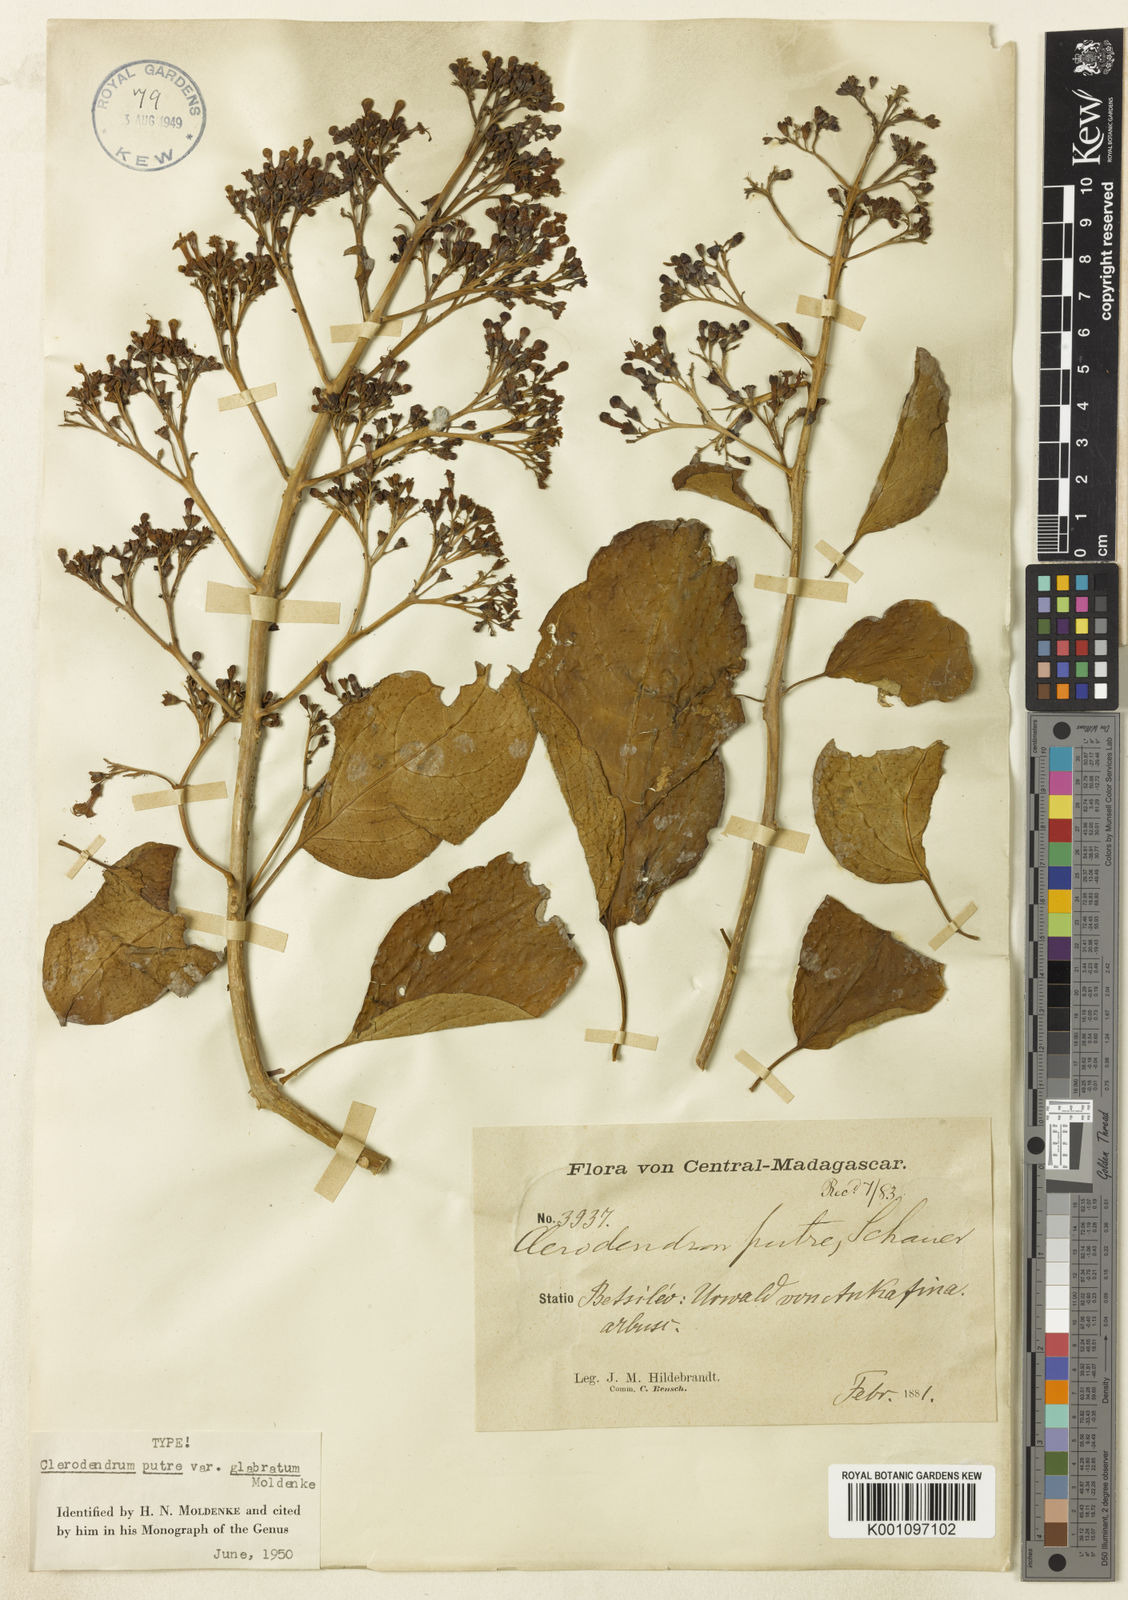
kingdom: Plantae
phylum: Tracheophyta
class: Magnoliopsida
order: Lamiales
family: Lamiaceae
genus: Clerodendrum
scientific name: Clerodendrum putre
